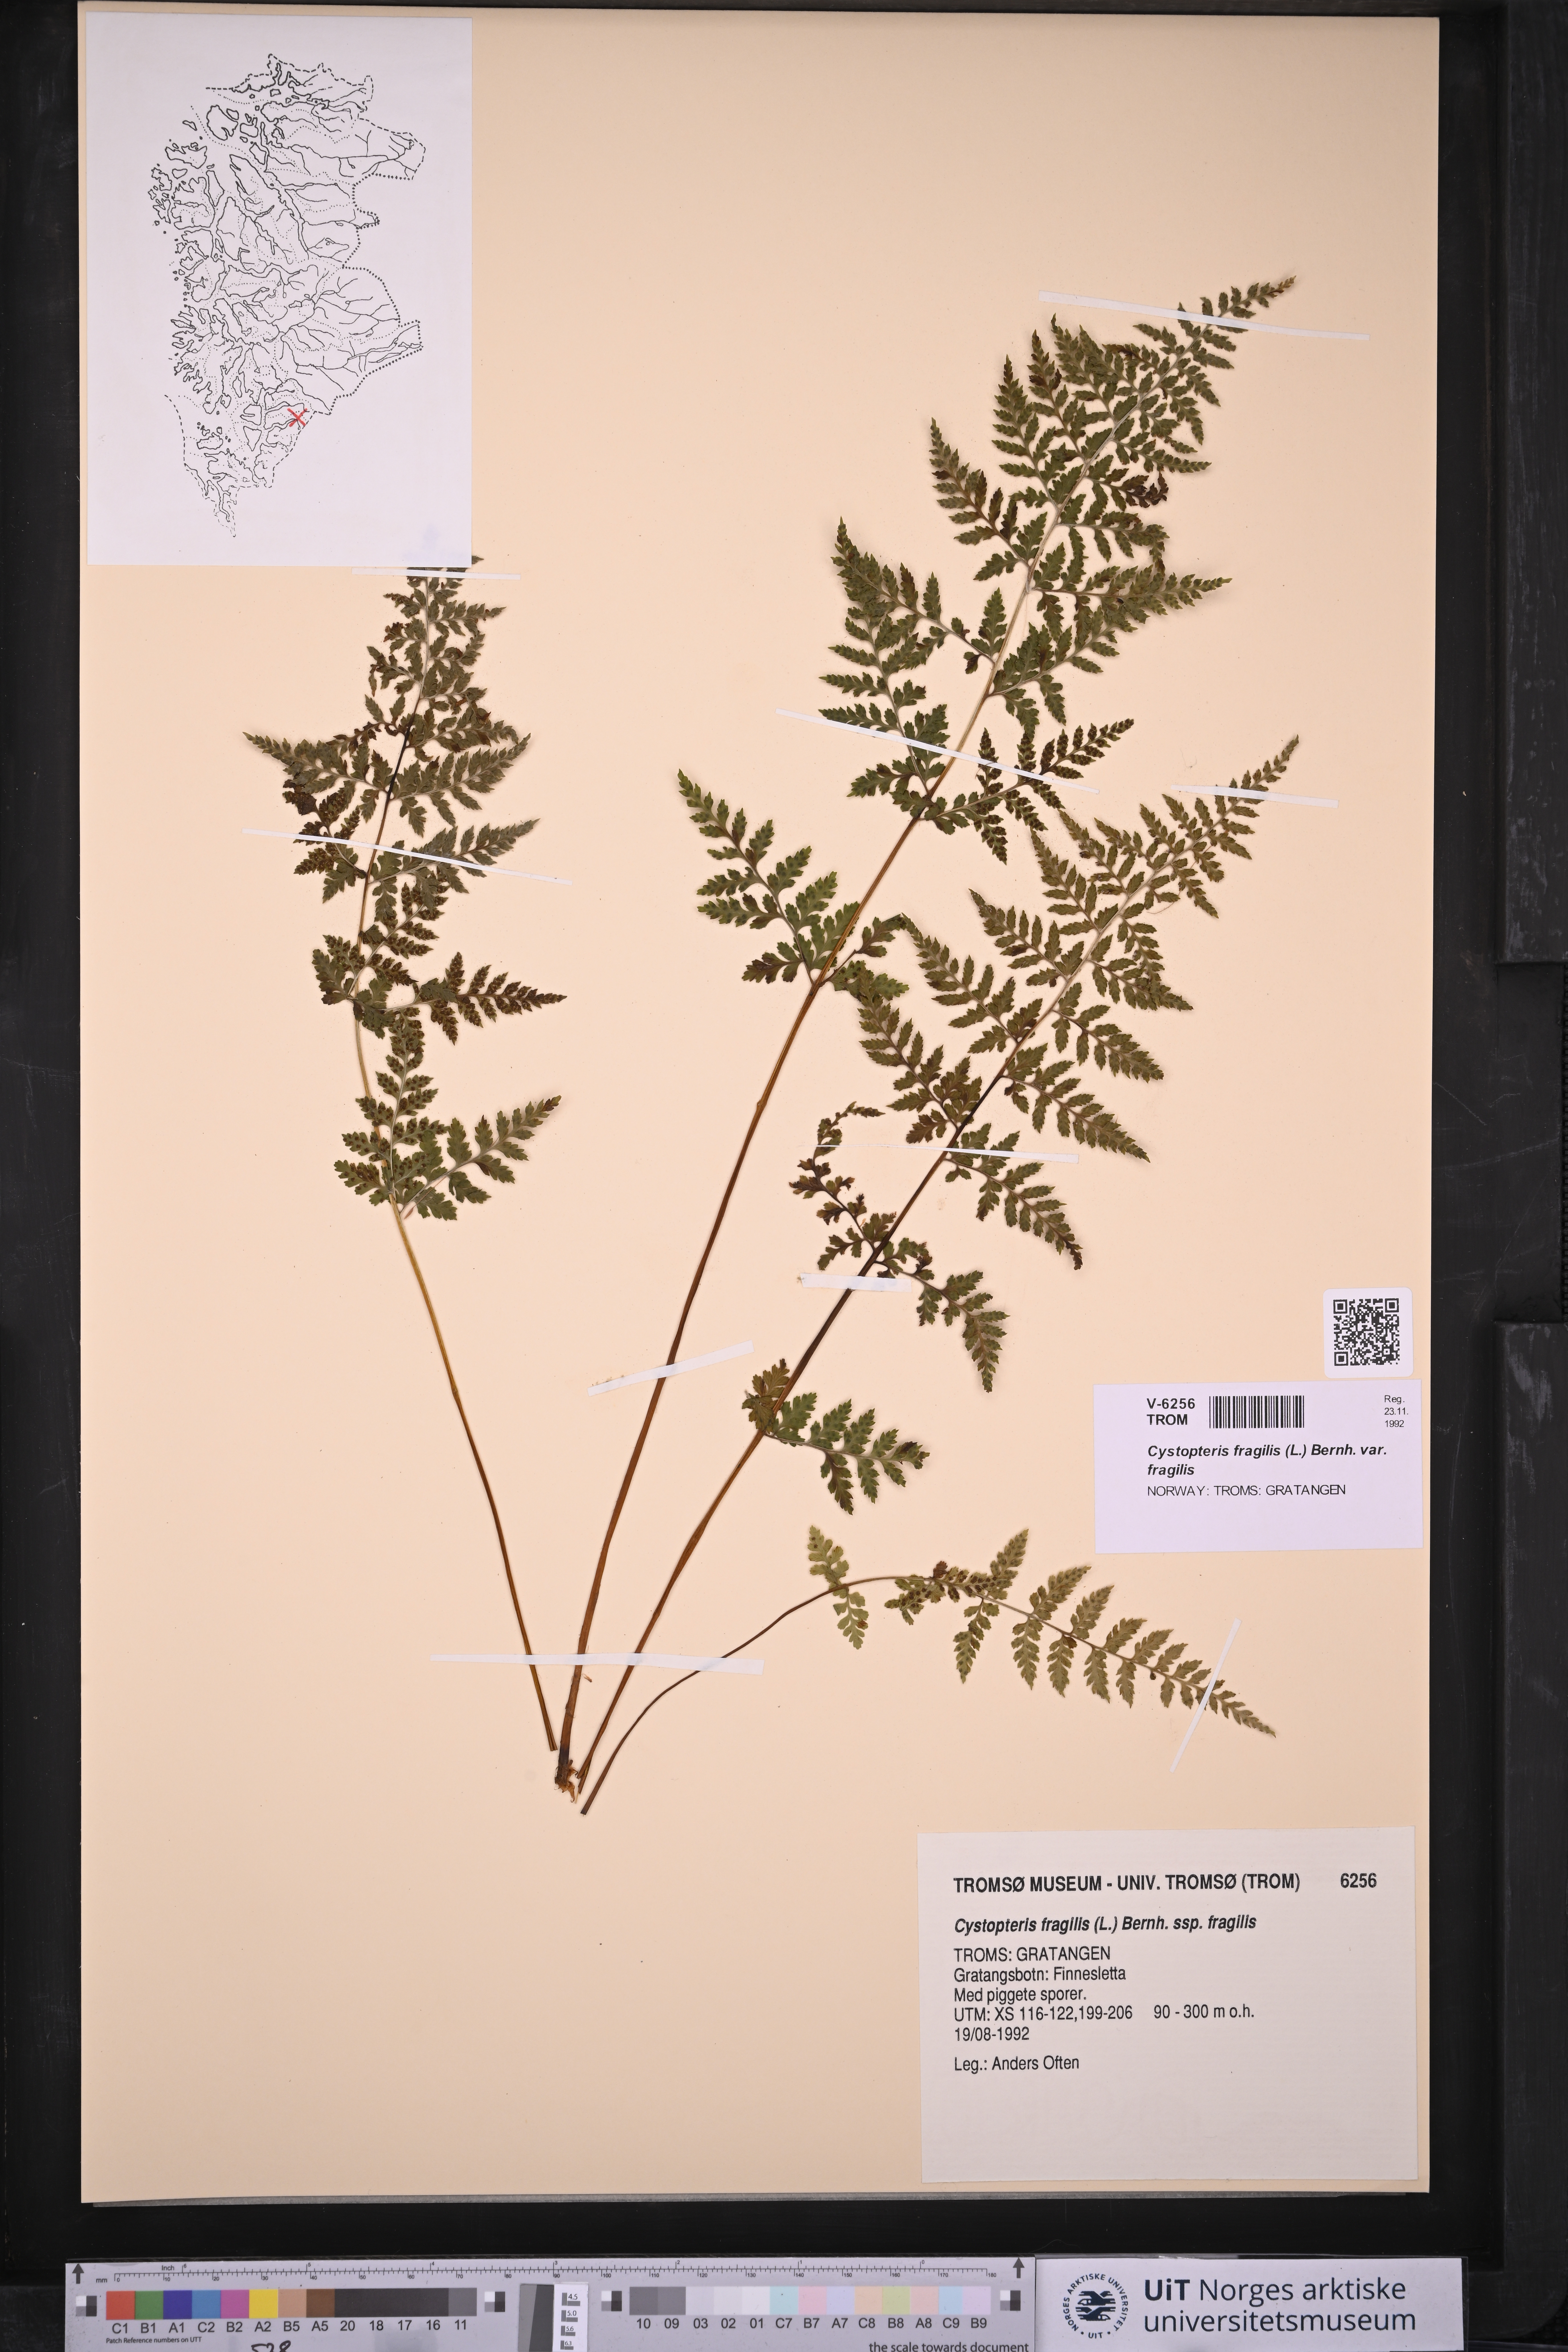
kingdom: Plantae
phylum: Tracheophyta
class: Polypodiopsida
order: Polypodiales
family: Cystopteridaceae
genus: Cystopteris
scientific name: Cystopteris fragilis
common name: Brittle bladder fern
